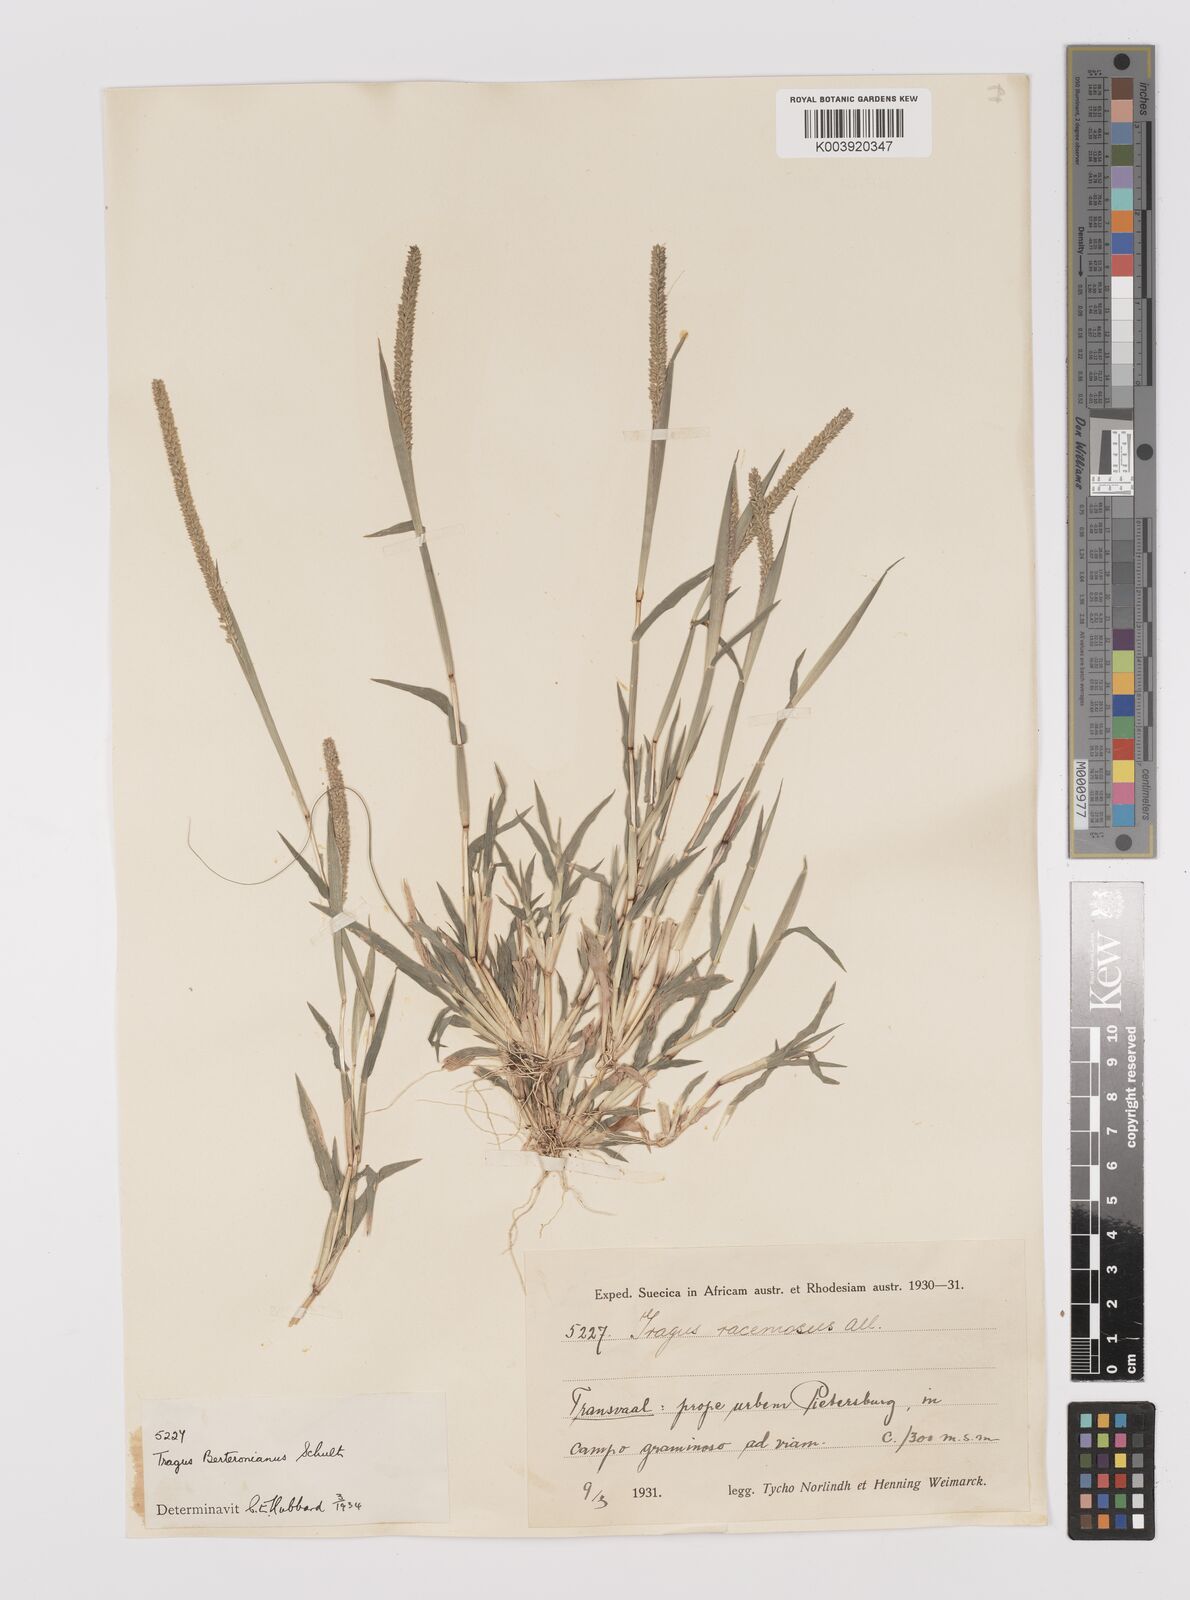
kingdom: Plantae
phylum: Tracheophyta
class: Liliopsida
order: Poales
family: Poaceae
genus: Tragus
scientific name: Tragus berteronianus
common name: African bur-grass
